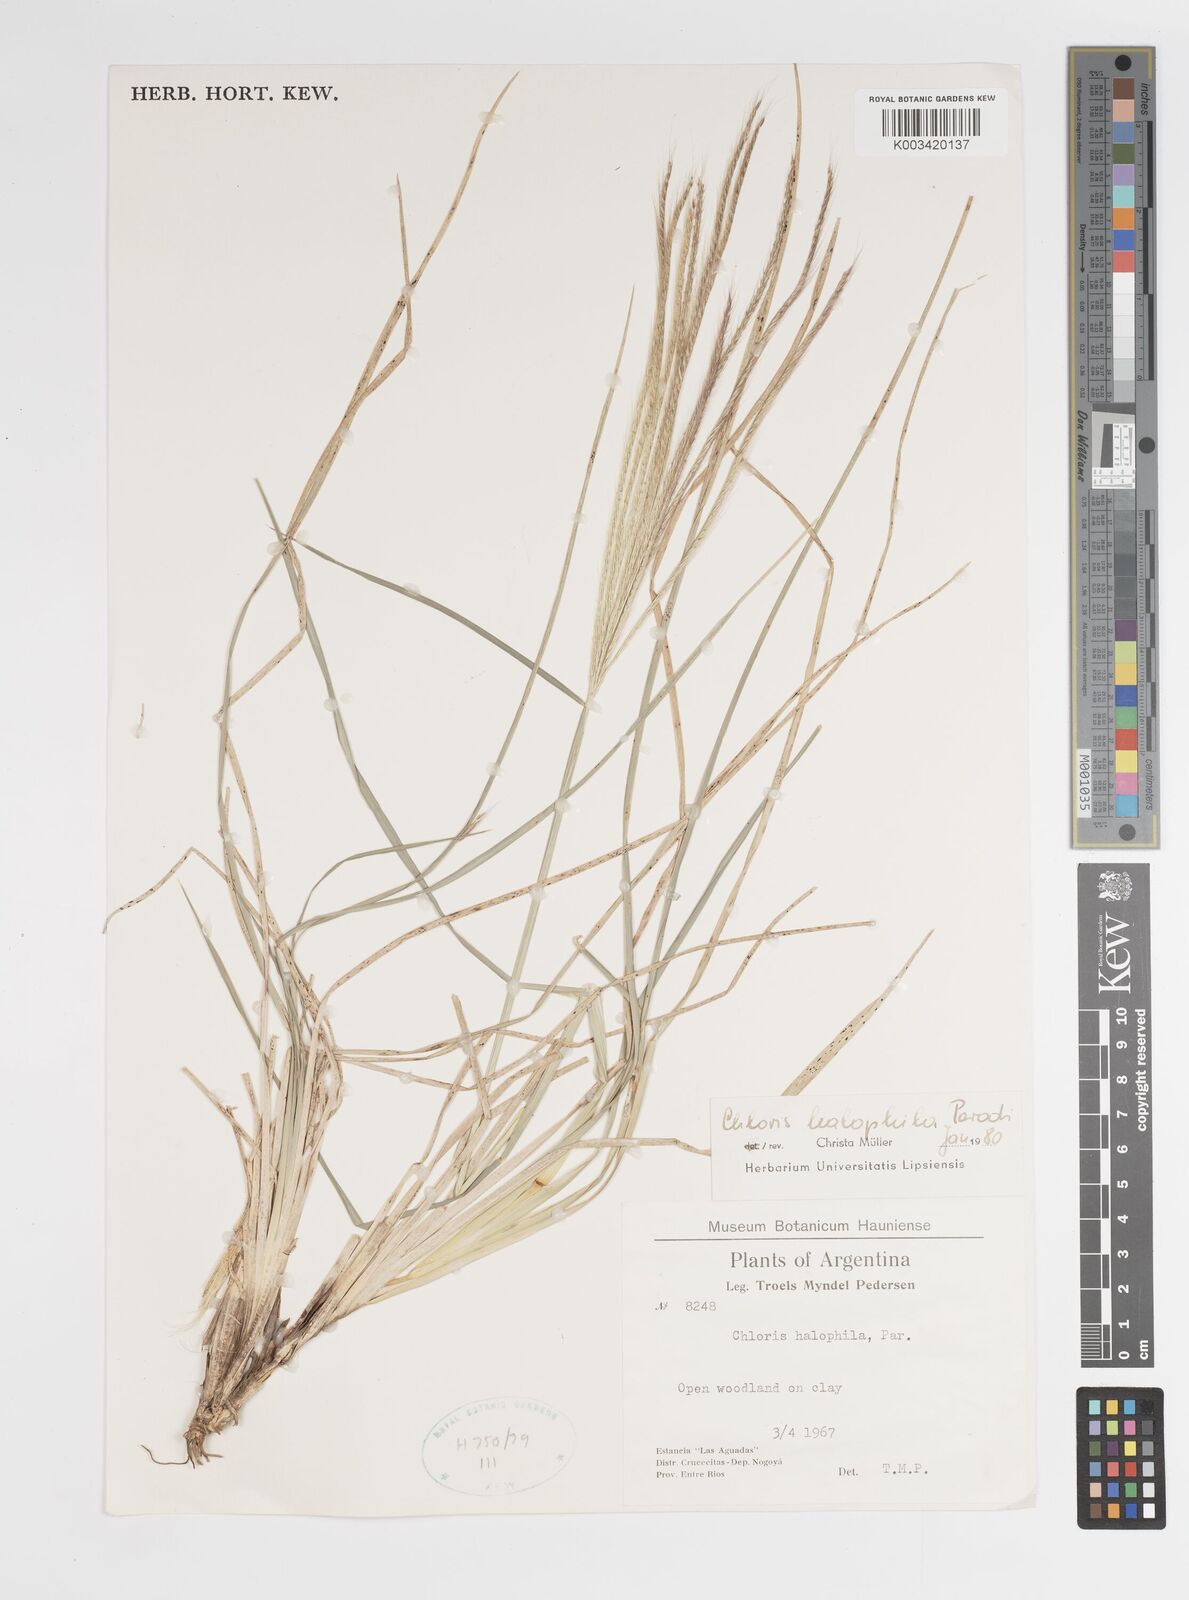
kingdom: Plantae
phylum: Tracheophyta
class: Liliopsida
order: Poales
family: Poaceae
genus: Chloris
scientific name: Chloris halophila
